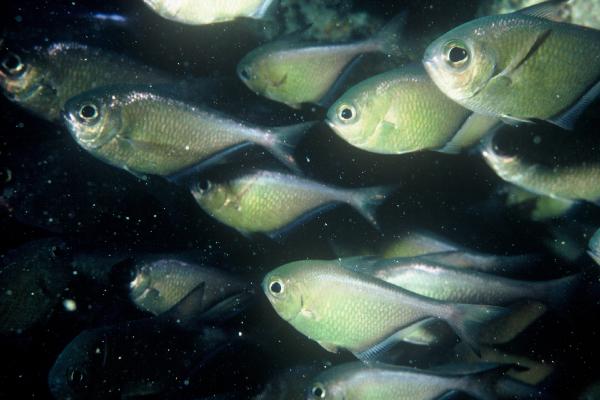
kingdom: Animalia
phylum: Chordata
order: Perciformes
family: Pempheridae
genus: Pempheris
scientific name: Pempheris schwenkii
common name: Silver bullseye
